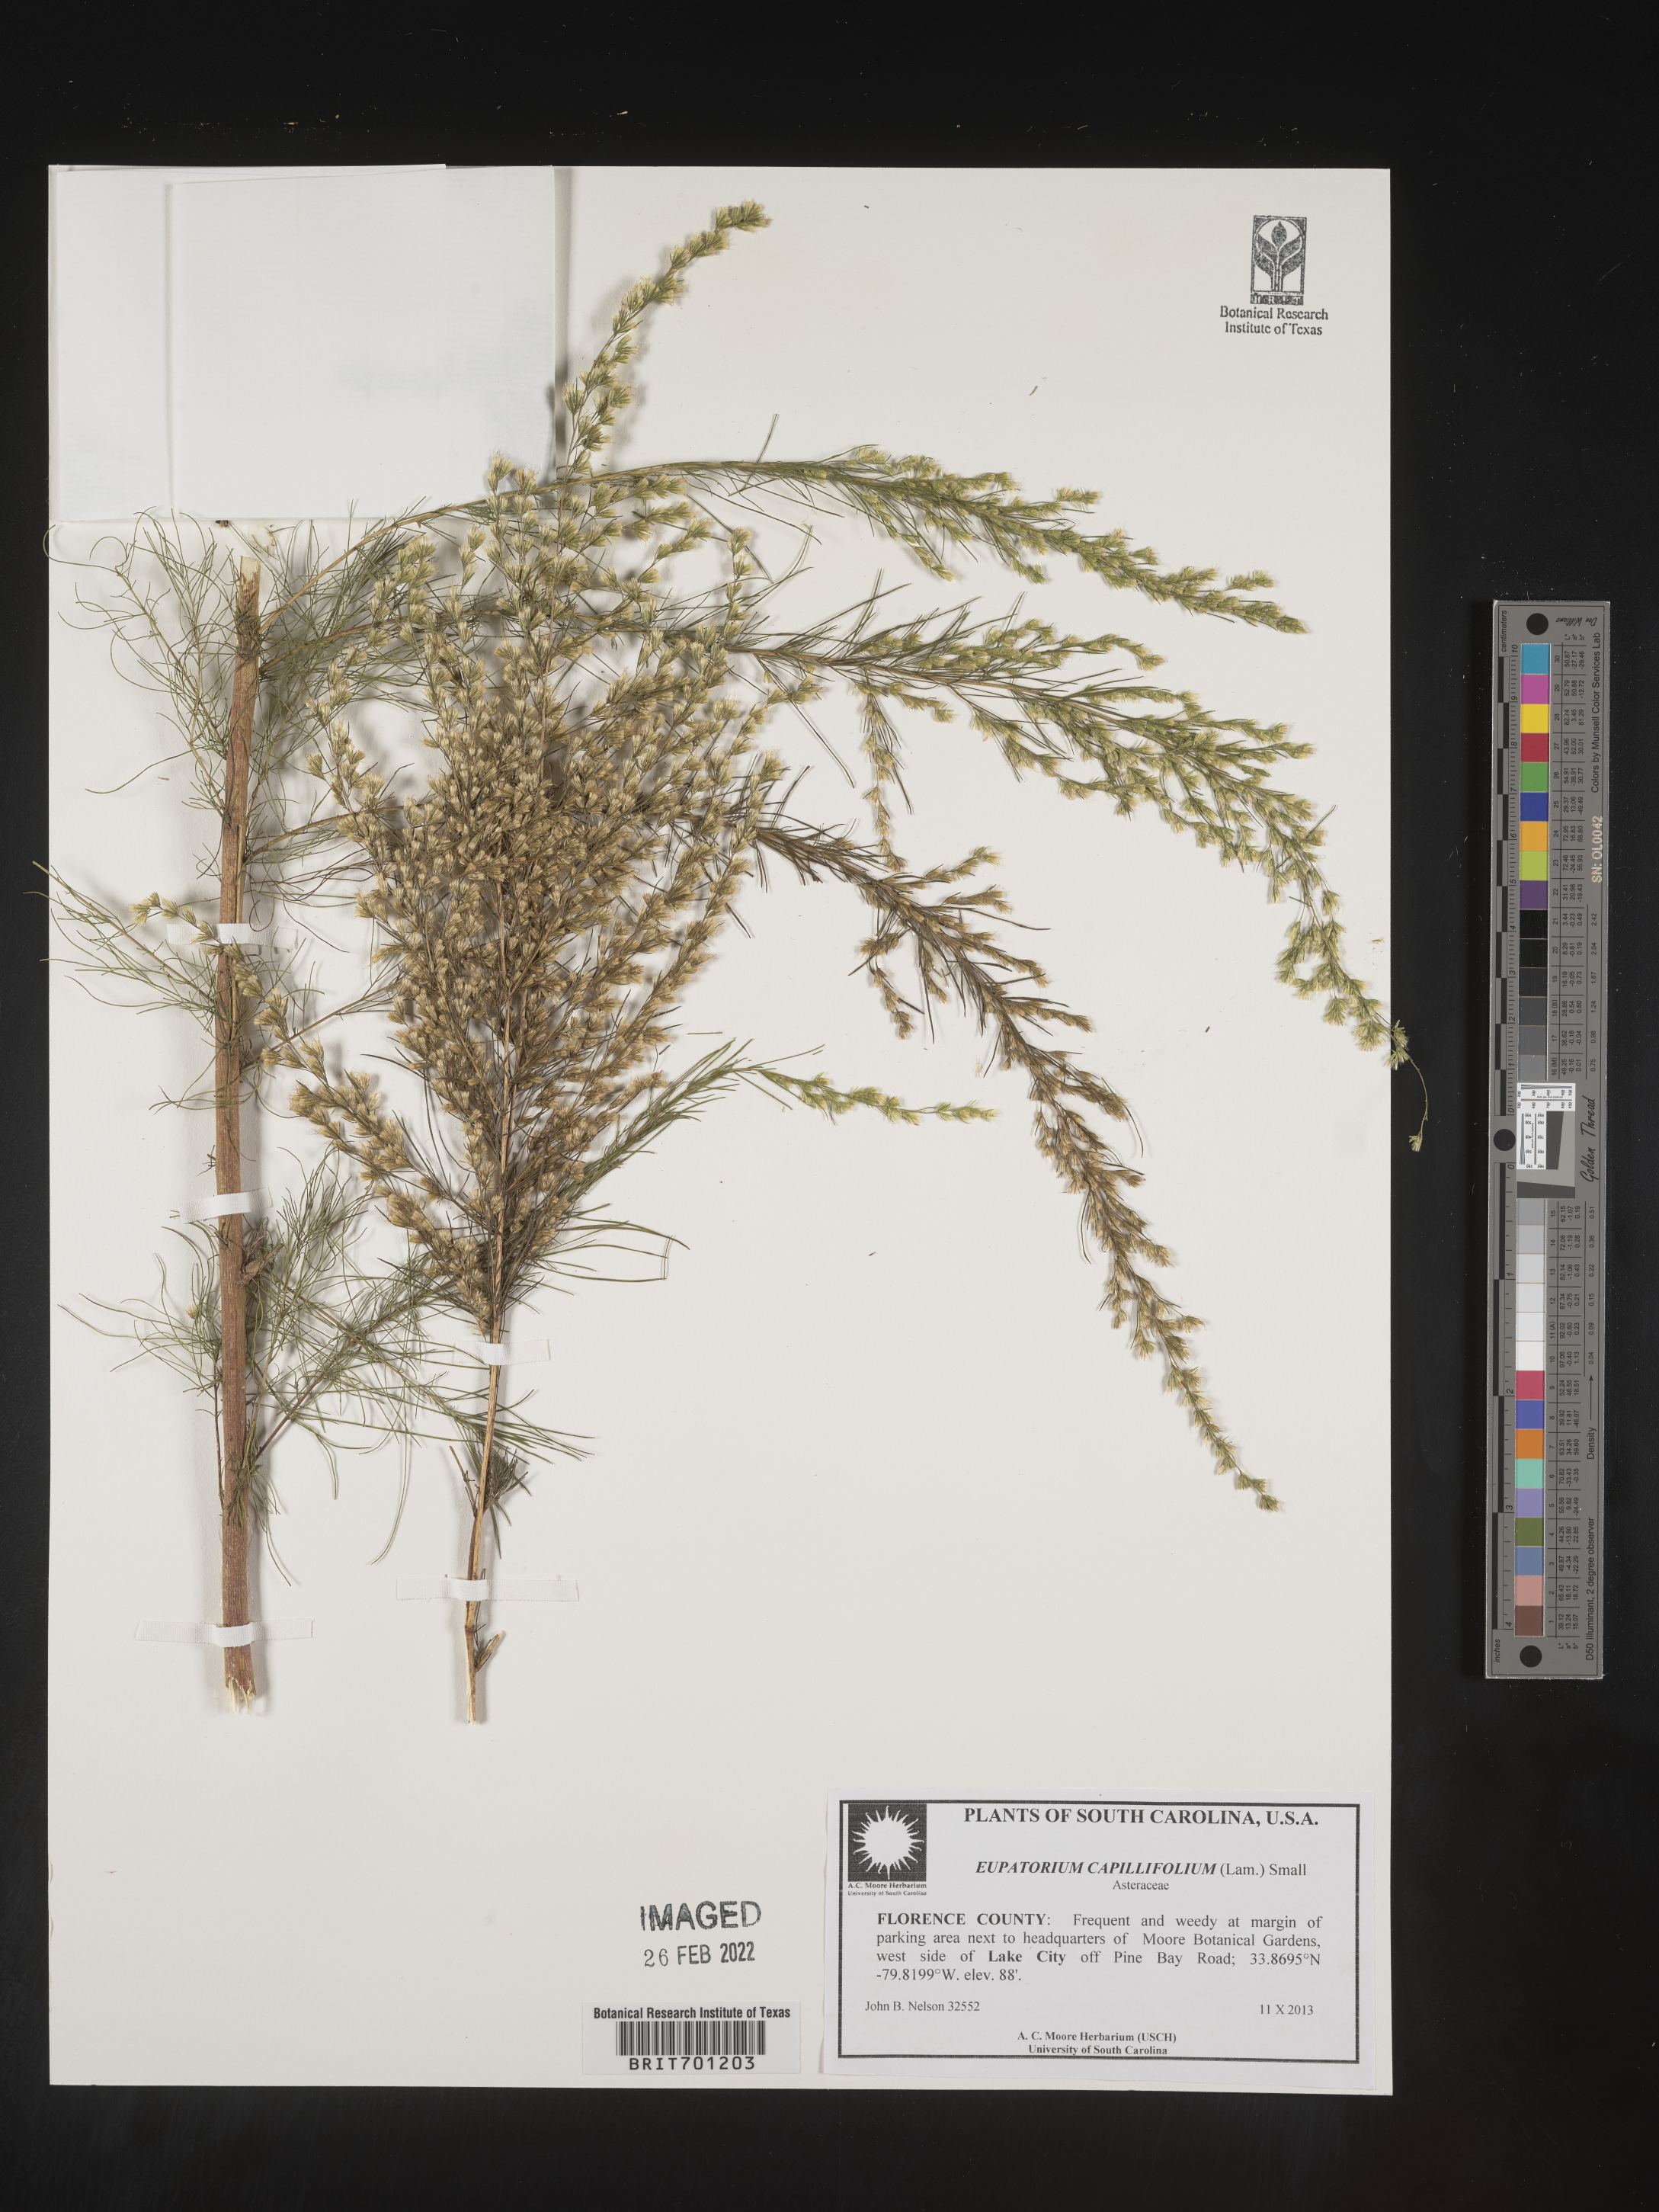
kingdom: Plantae
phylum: Tracheophyta
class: Magnoliopsida
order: Asterales
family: Asteraceae
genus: Eupatorium
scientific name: Eupatorium capillifolium
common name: Dog-fennel
